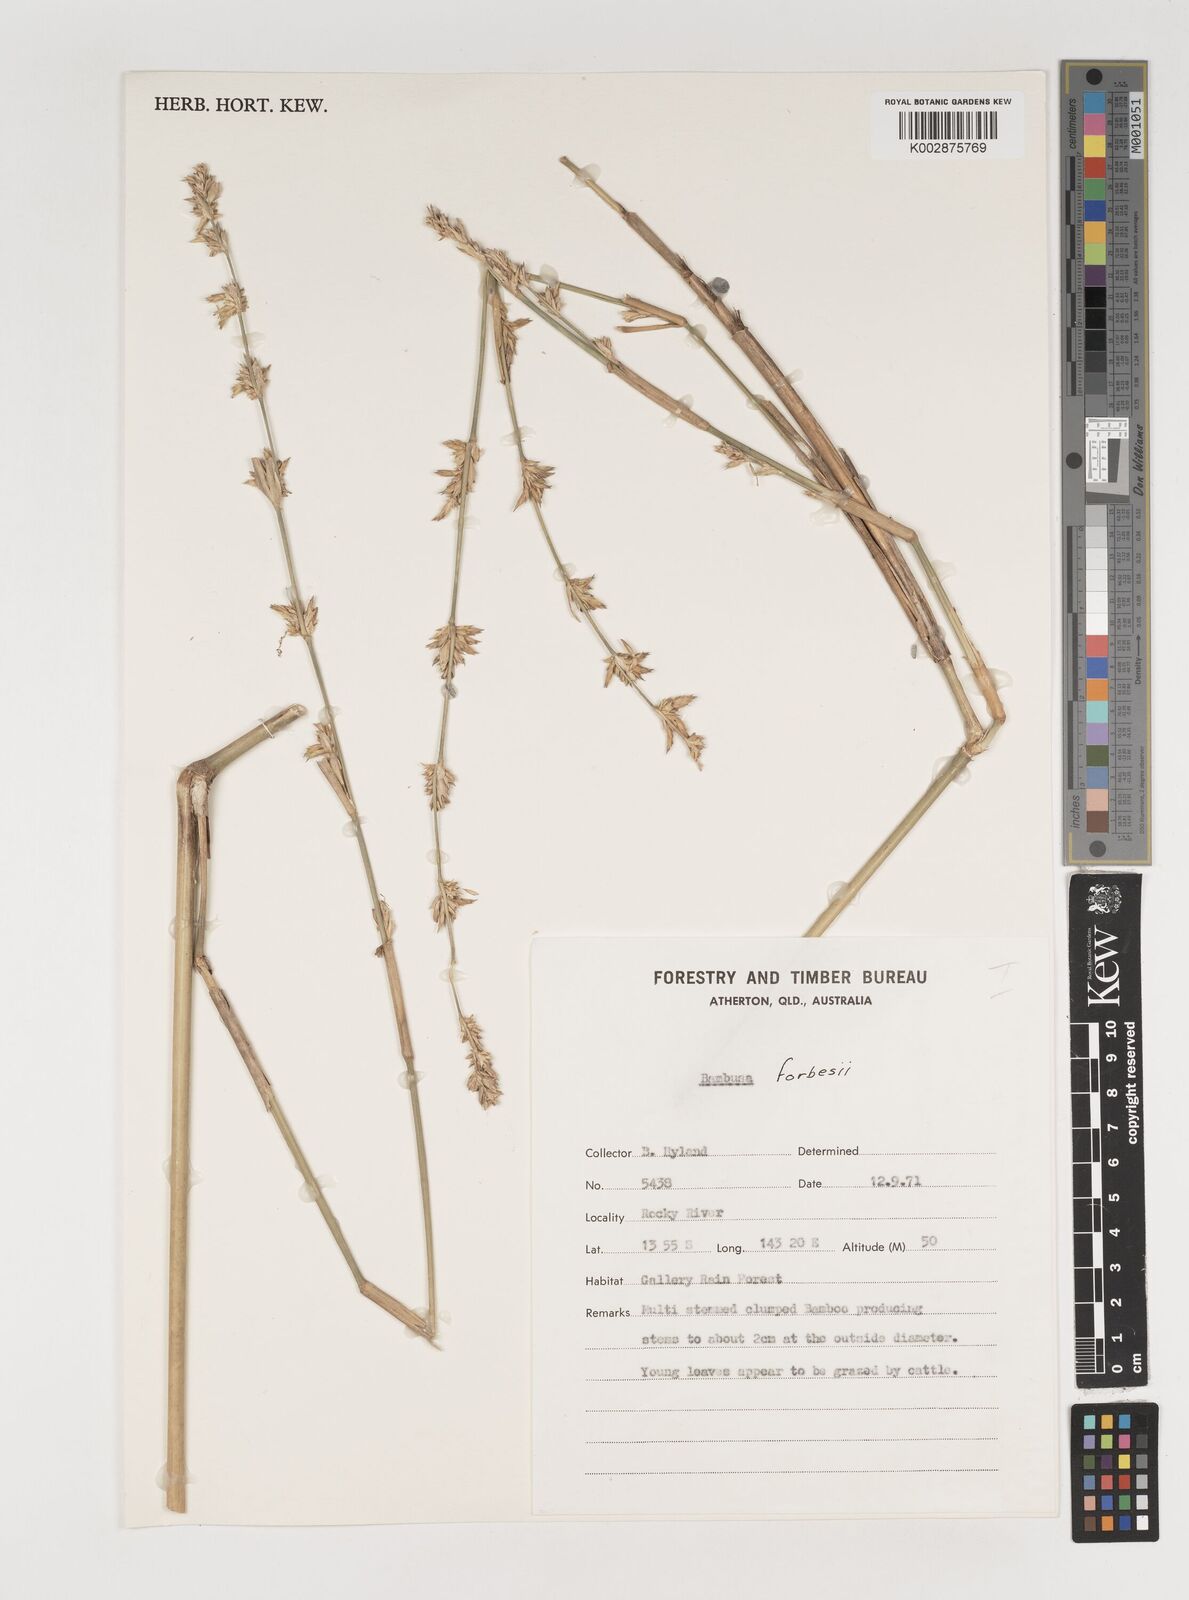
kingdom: Plantae
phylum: Tracheophyta
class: Liliopsida
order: Poales
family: Poaceae
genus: Neololeba
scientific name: Neololeba atra
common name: Cape bamboo
